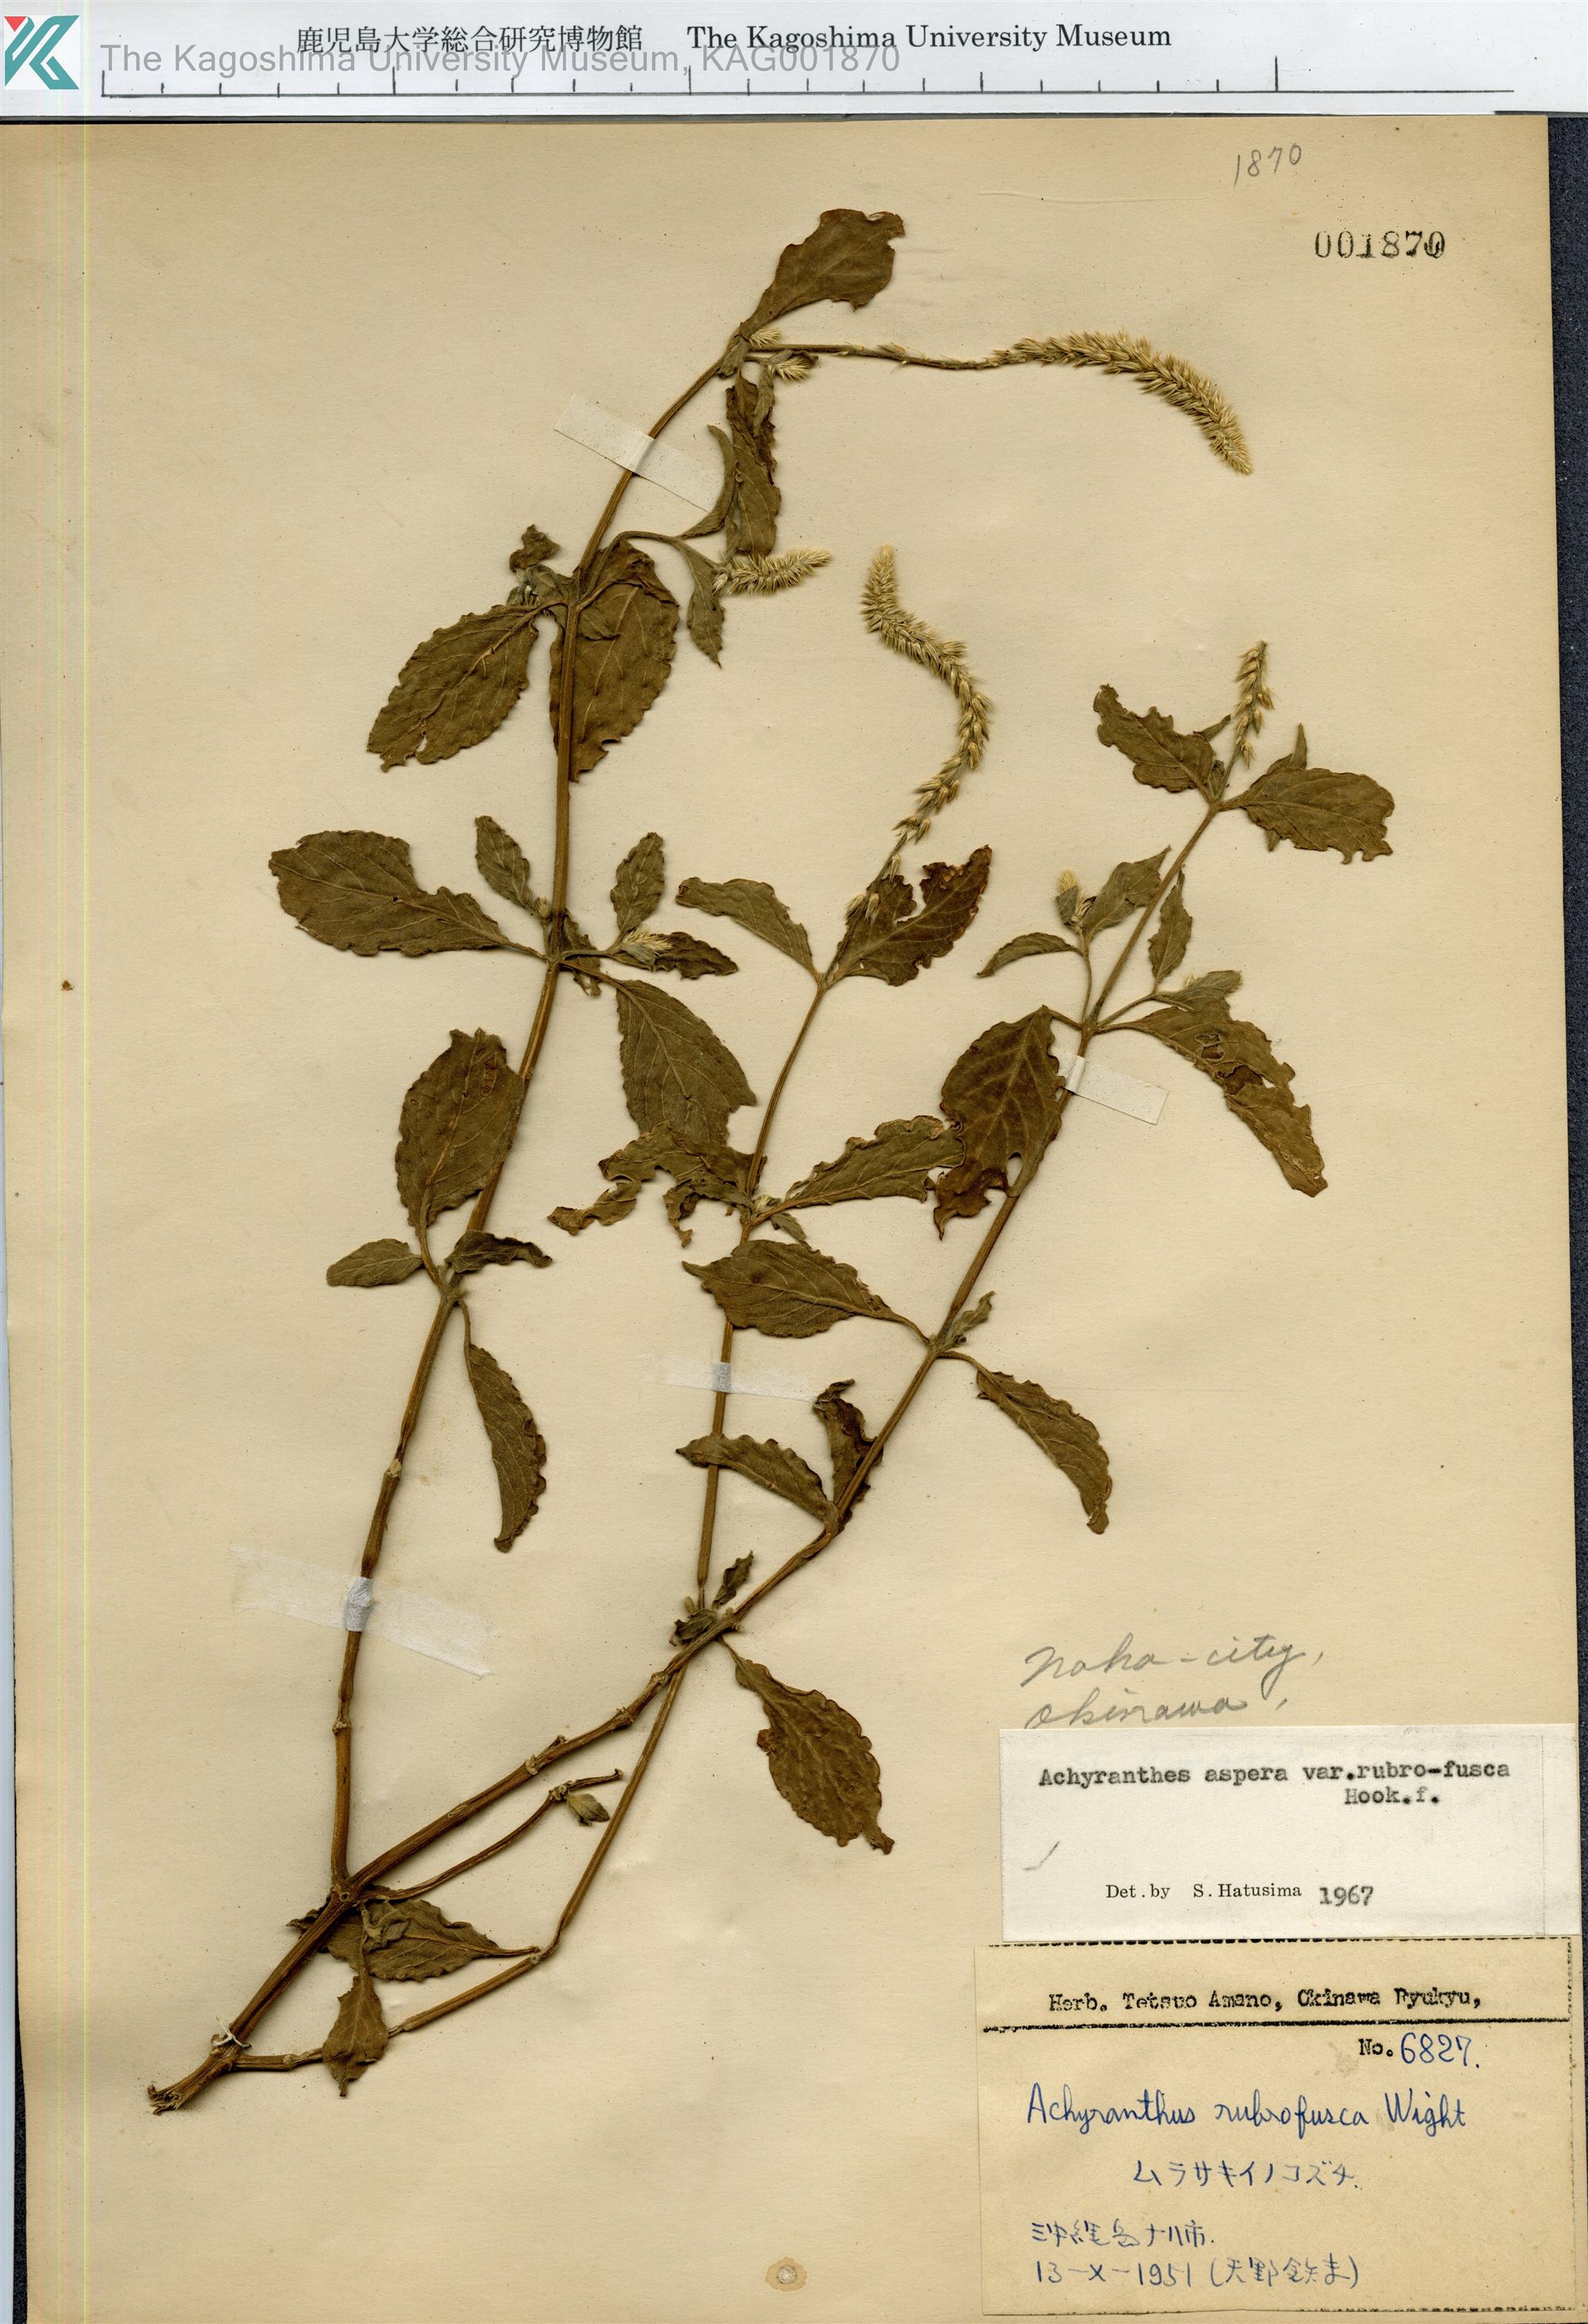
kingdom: Plantae
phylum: Tracheophyta
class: Magnoliopsida
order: Caryophyllales
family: Amaranthaceae
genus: Achyranthes
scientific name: Achyranthes aspera
